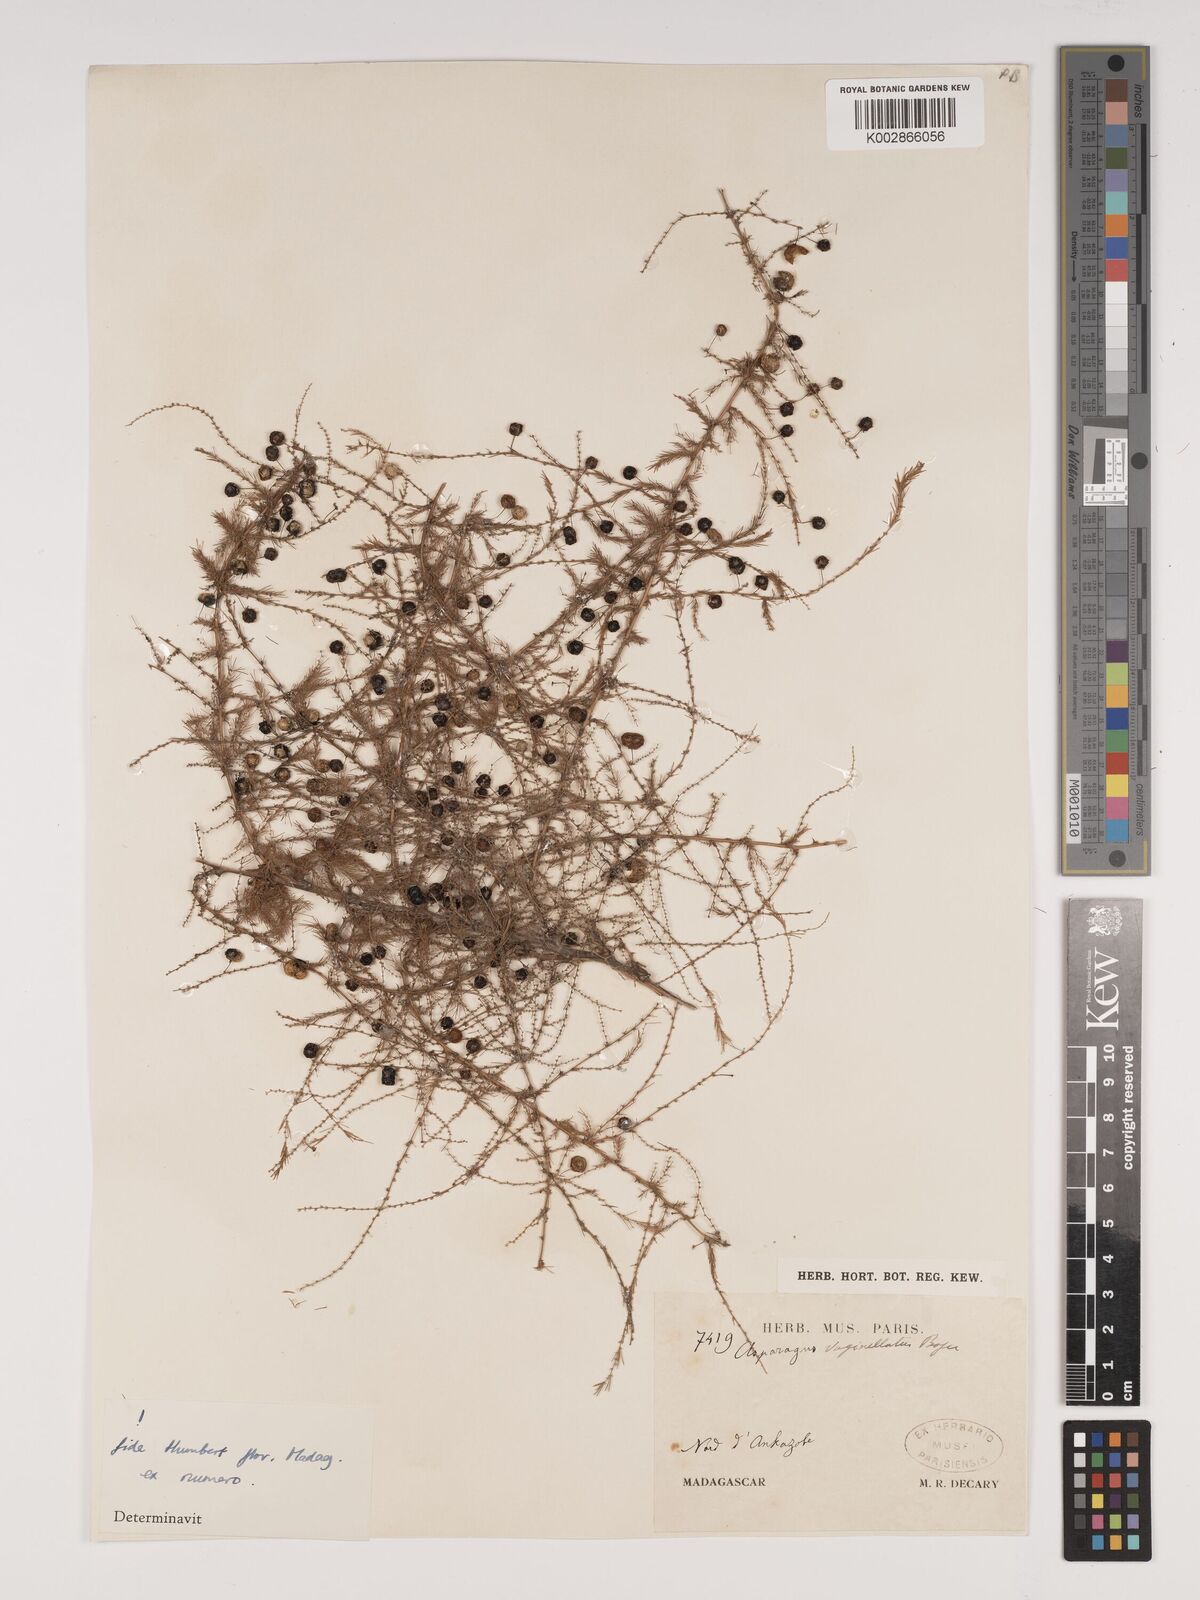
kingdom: Plantae
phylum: Tracheophyta
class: Liliopsida
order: Asparagales
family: Asparagaceae
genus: Asparagus
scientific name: Asparagus vaginellatus
